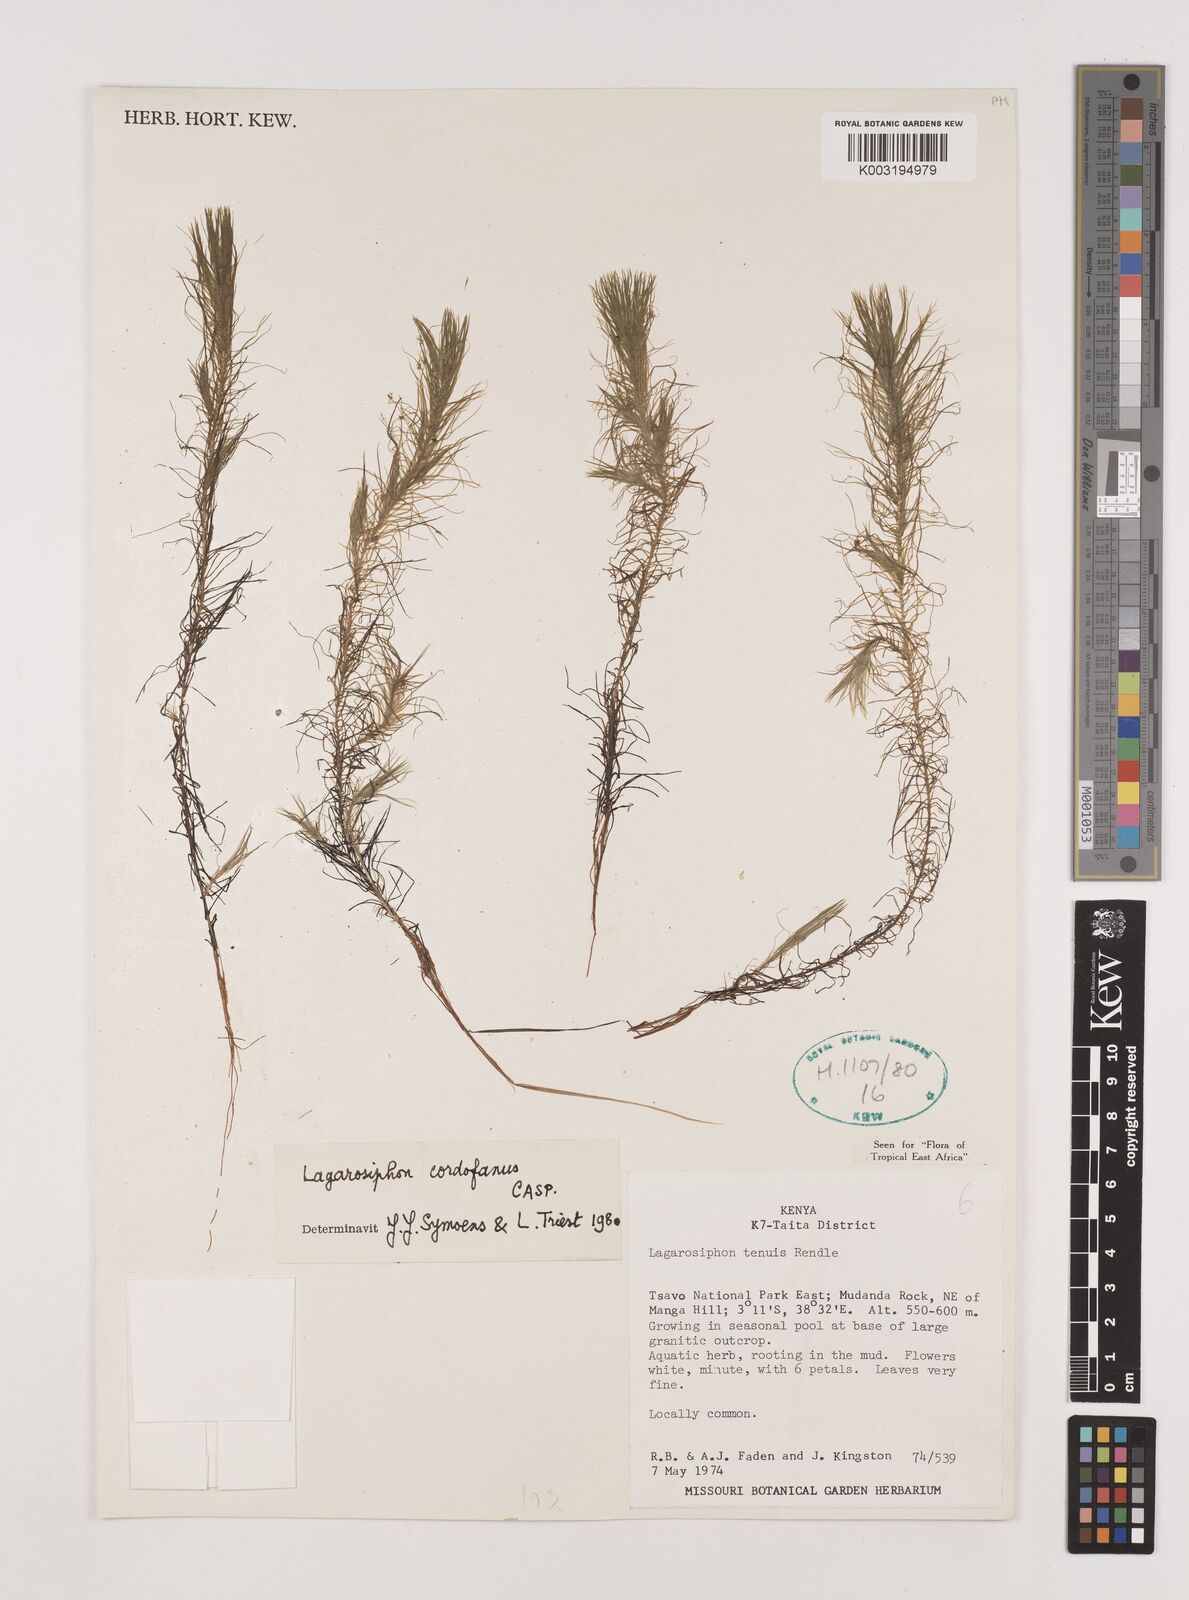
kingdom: Plantae
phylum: Tracheophyta
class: Liliopsida
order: Alismatales
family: Hydrocharitaceae
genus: Lagarosiphon
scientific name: Lagarosiphon cordofanus
